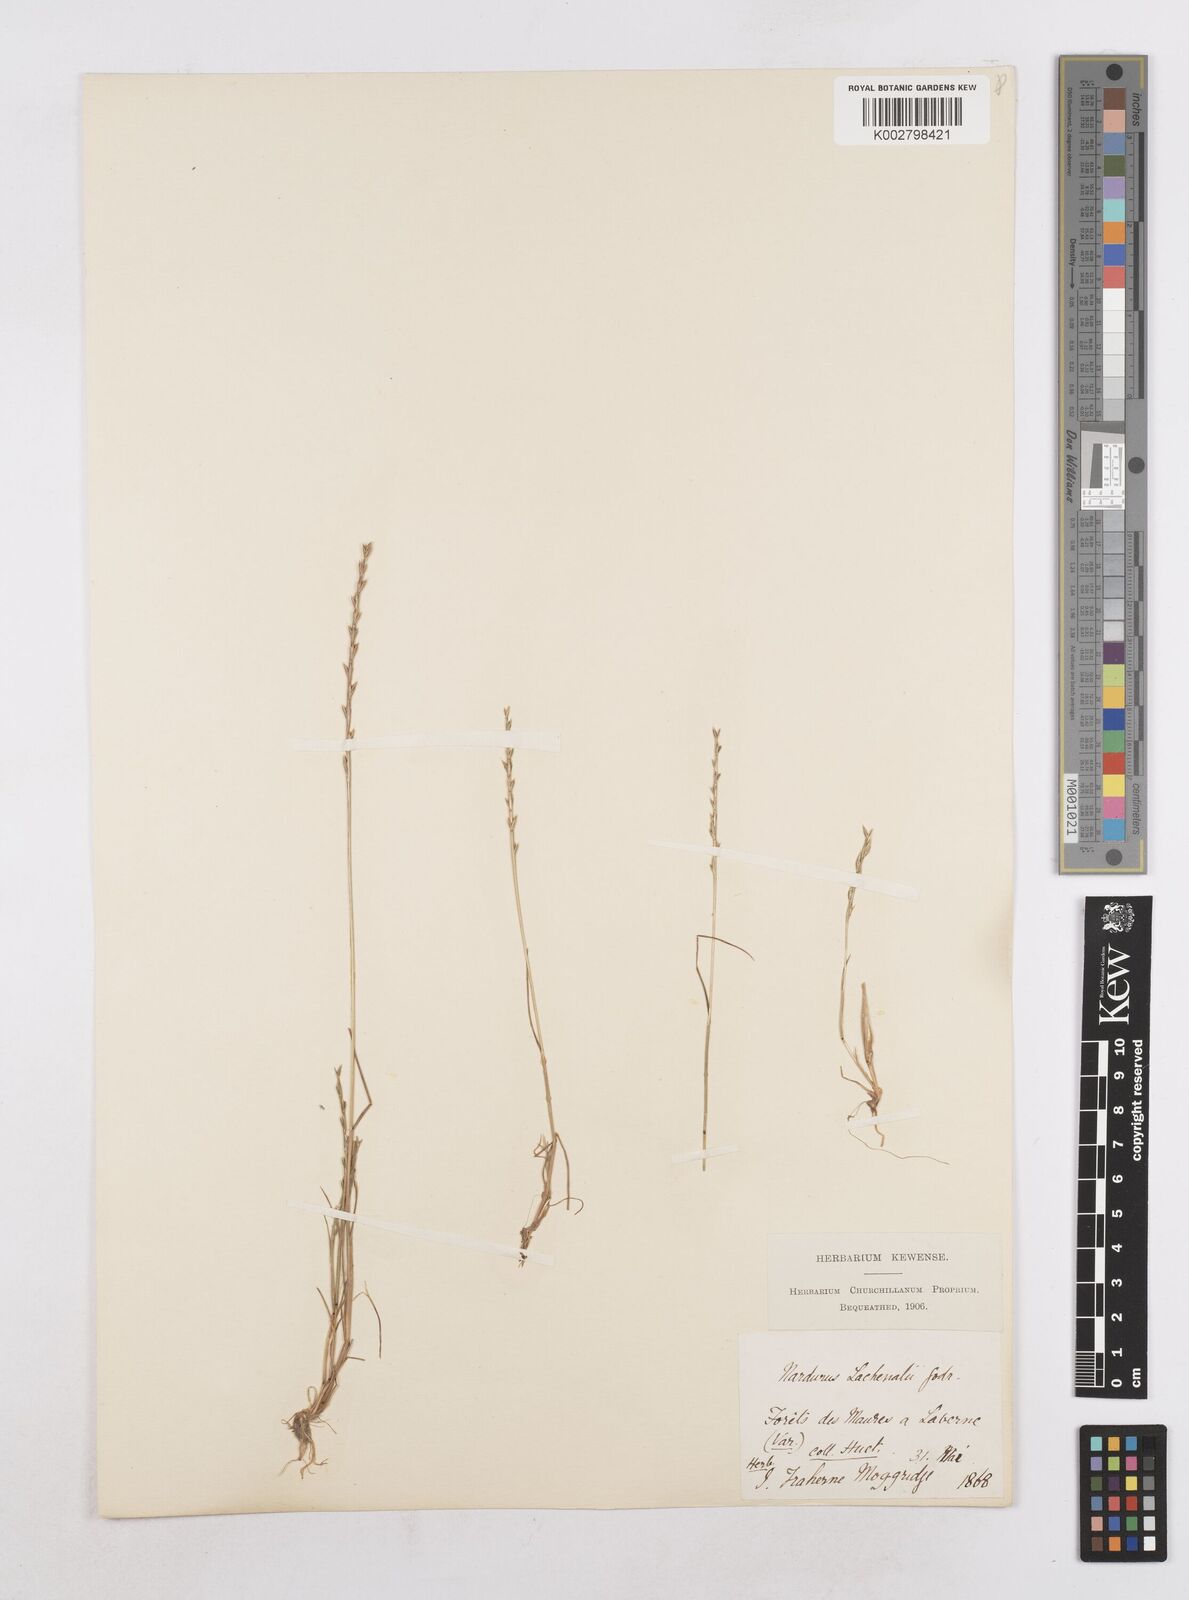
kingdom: Plantae
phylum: Tracheophyta
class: Liliopsida
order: Poales
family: Poaceae
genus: Festuca
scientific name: Festuca lachenalii
